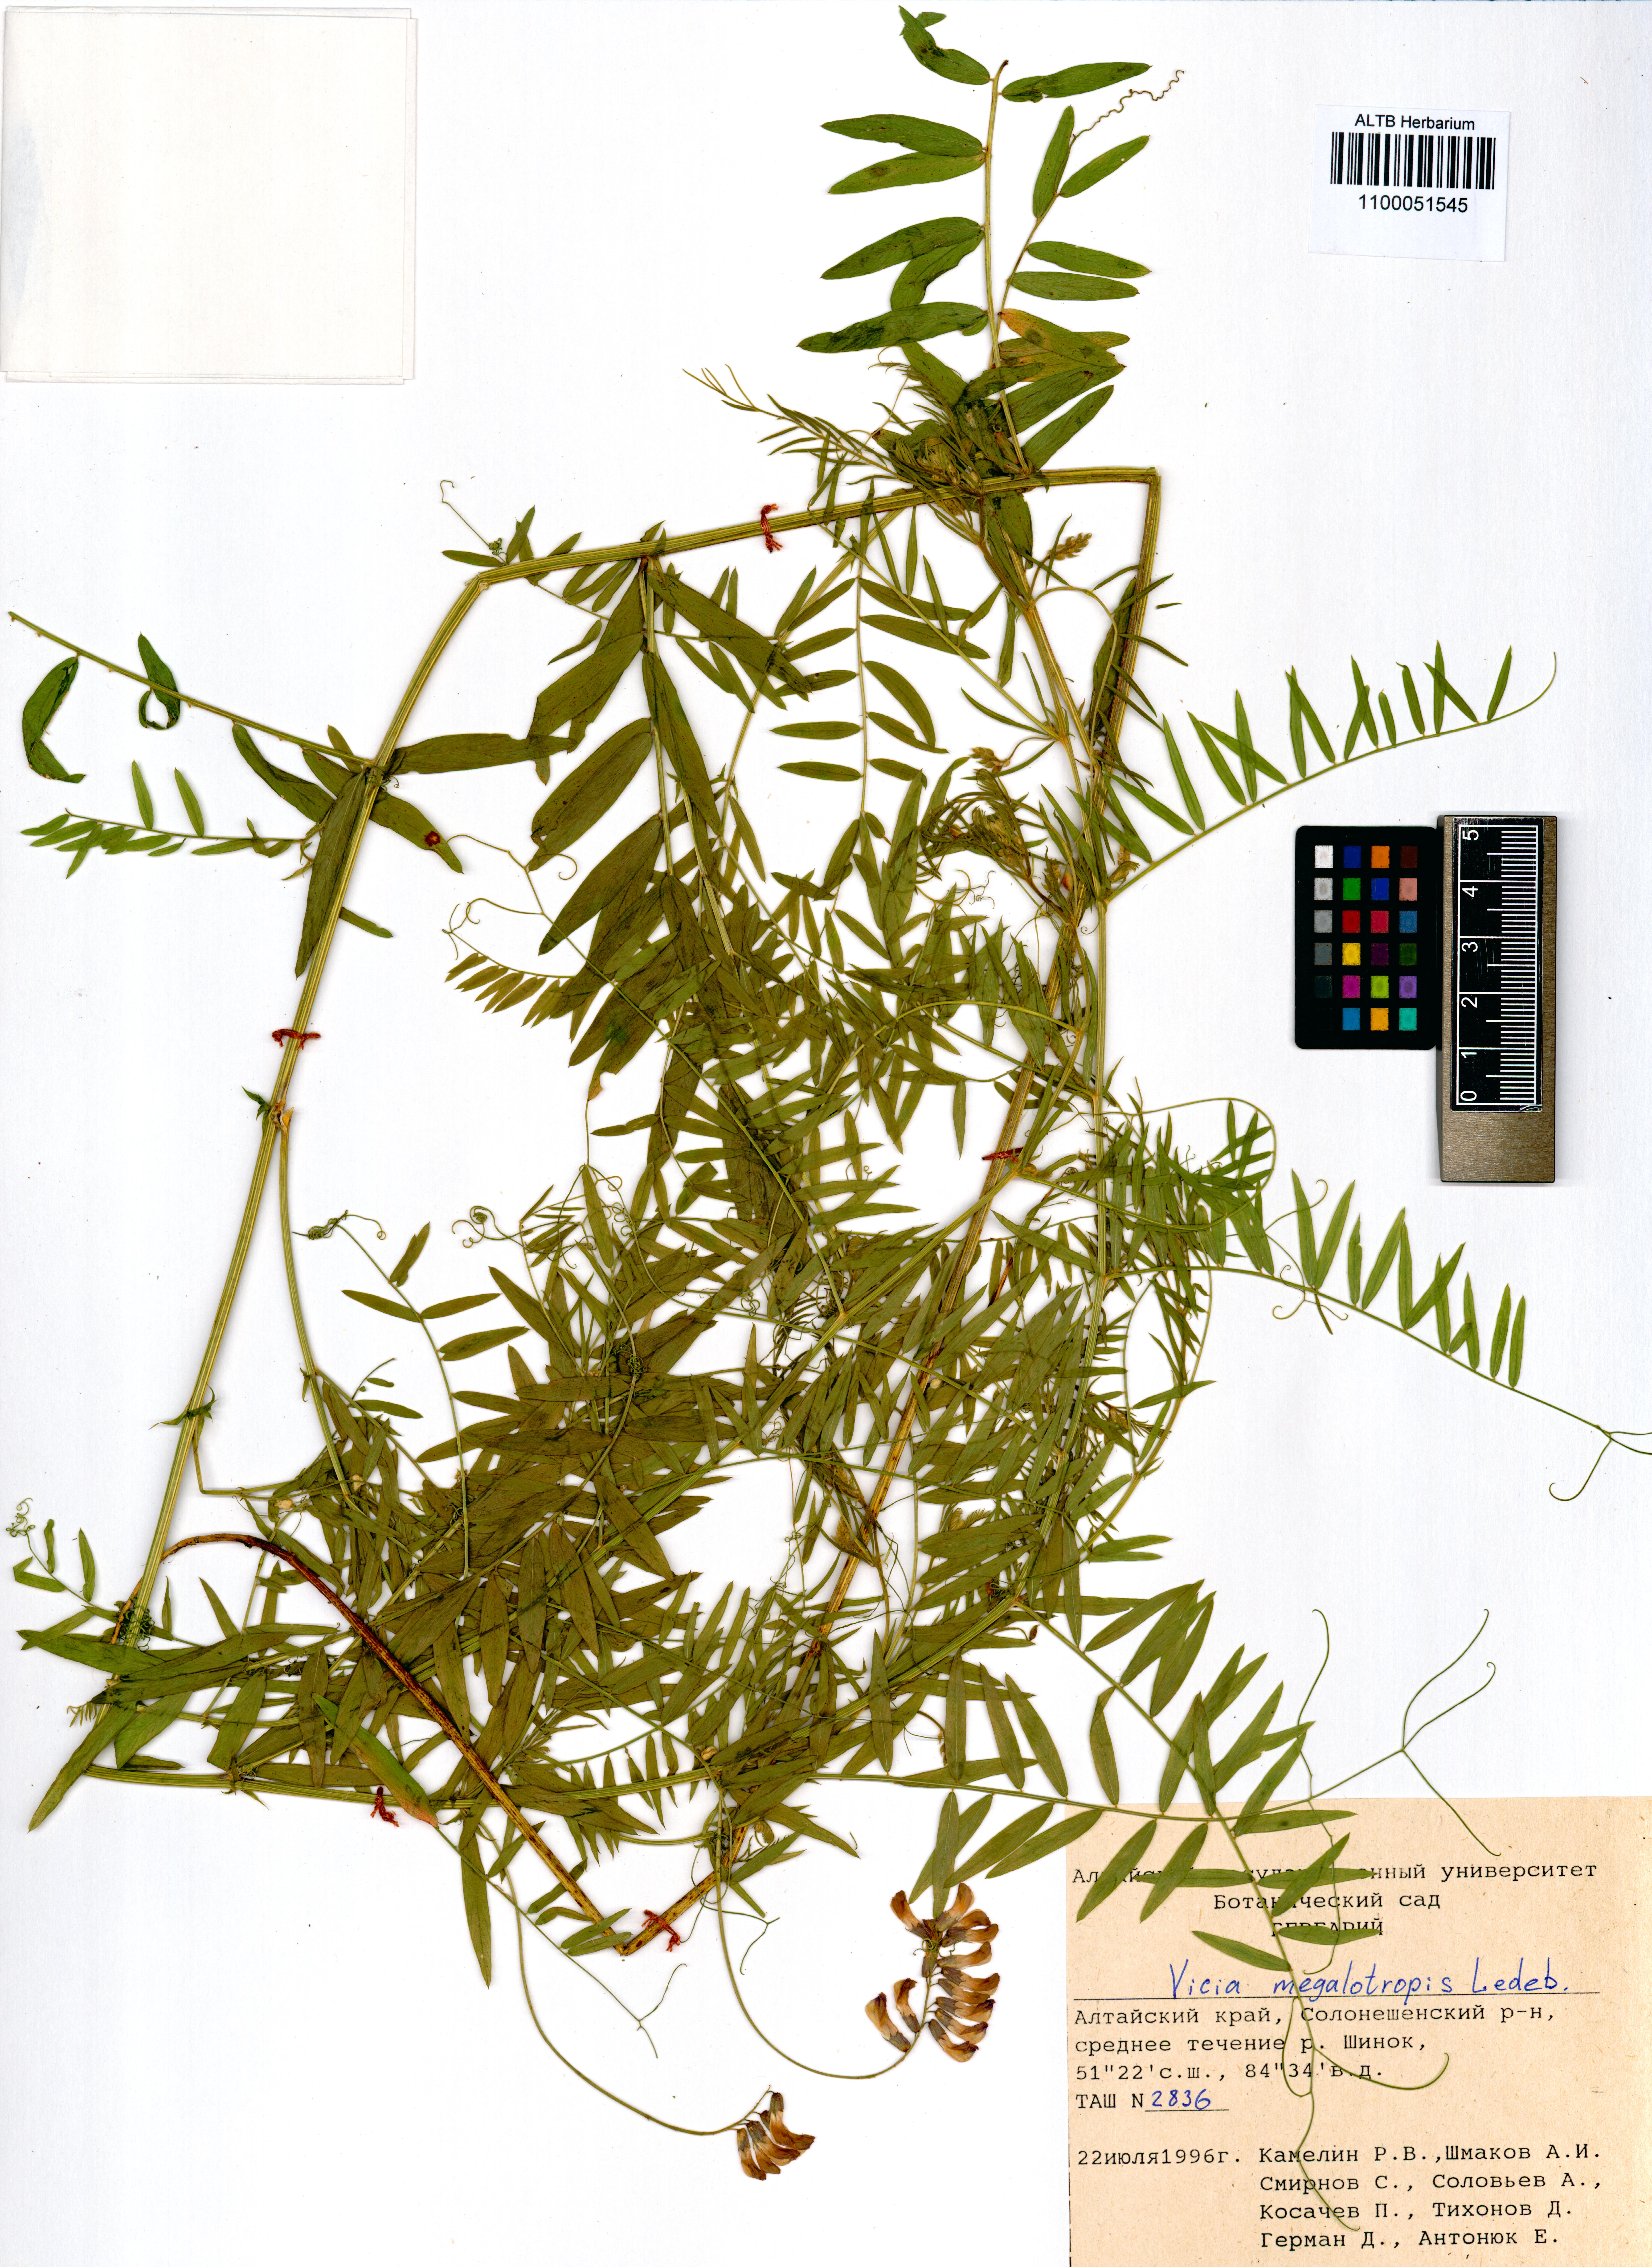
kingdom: Plantae
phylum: Tracheophyta
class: Magnoliopsida
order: Fabales
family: Fabaceae
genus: Vicia
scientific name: Vicia megalotropis
